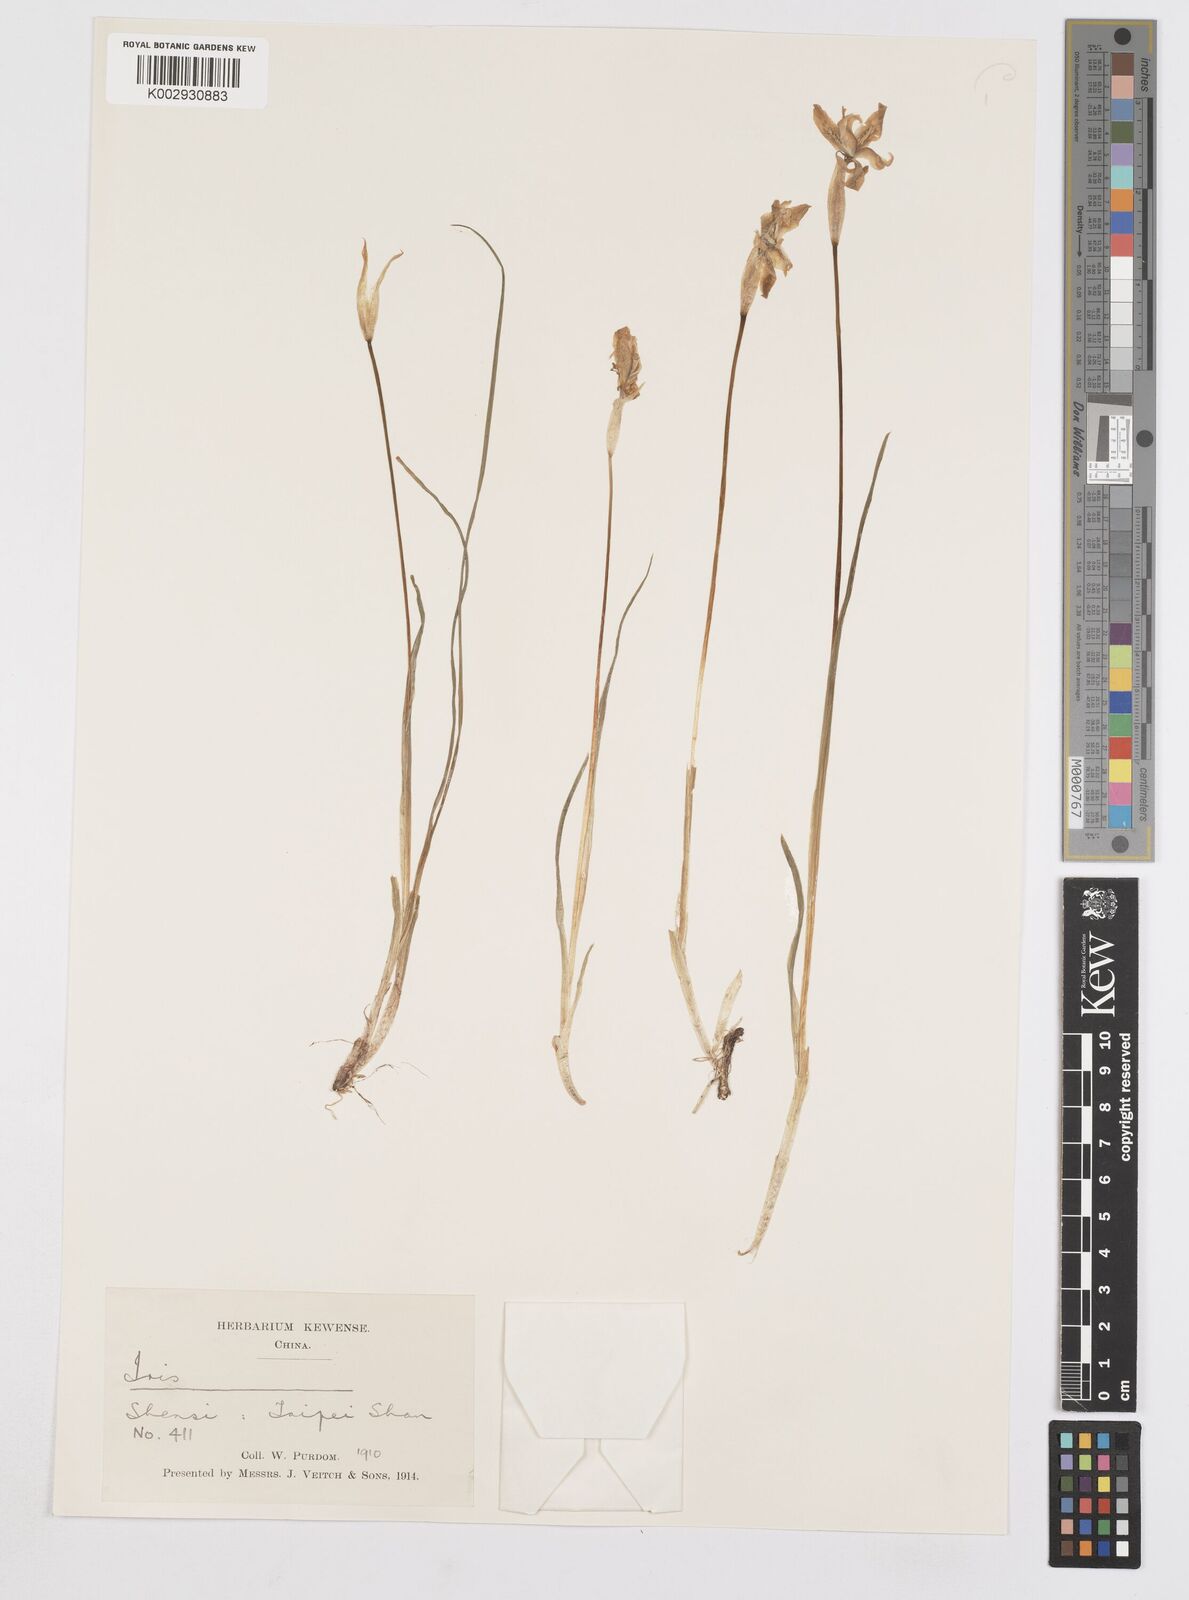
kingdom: Plantae
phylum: Tracheophyta
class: Liliopsida
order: Asparagales
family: Iridaceae
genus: Iris
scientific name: Iris goniocarpa
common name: Angular-fruit iris
